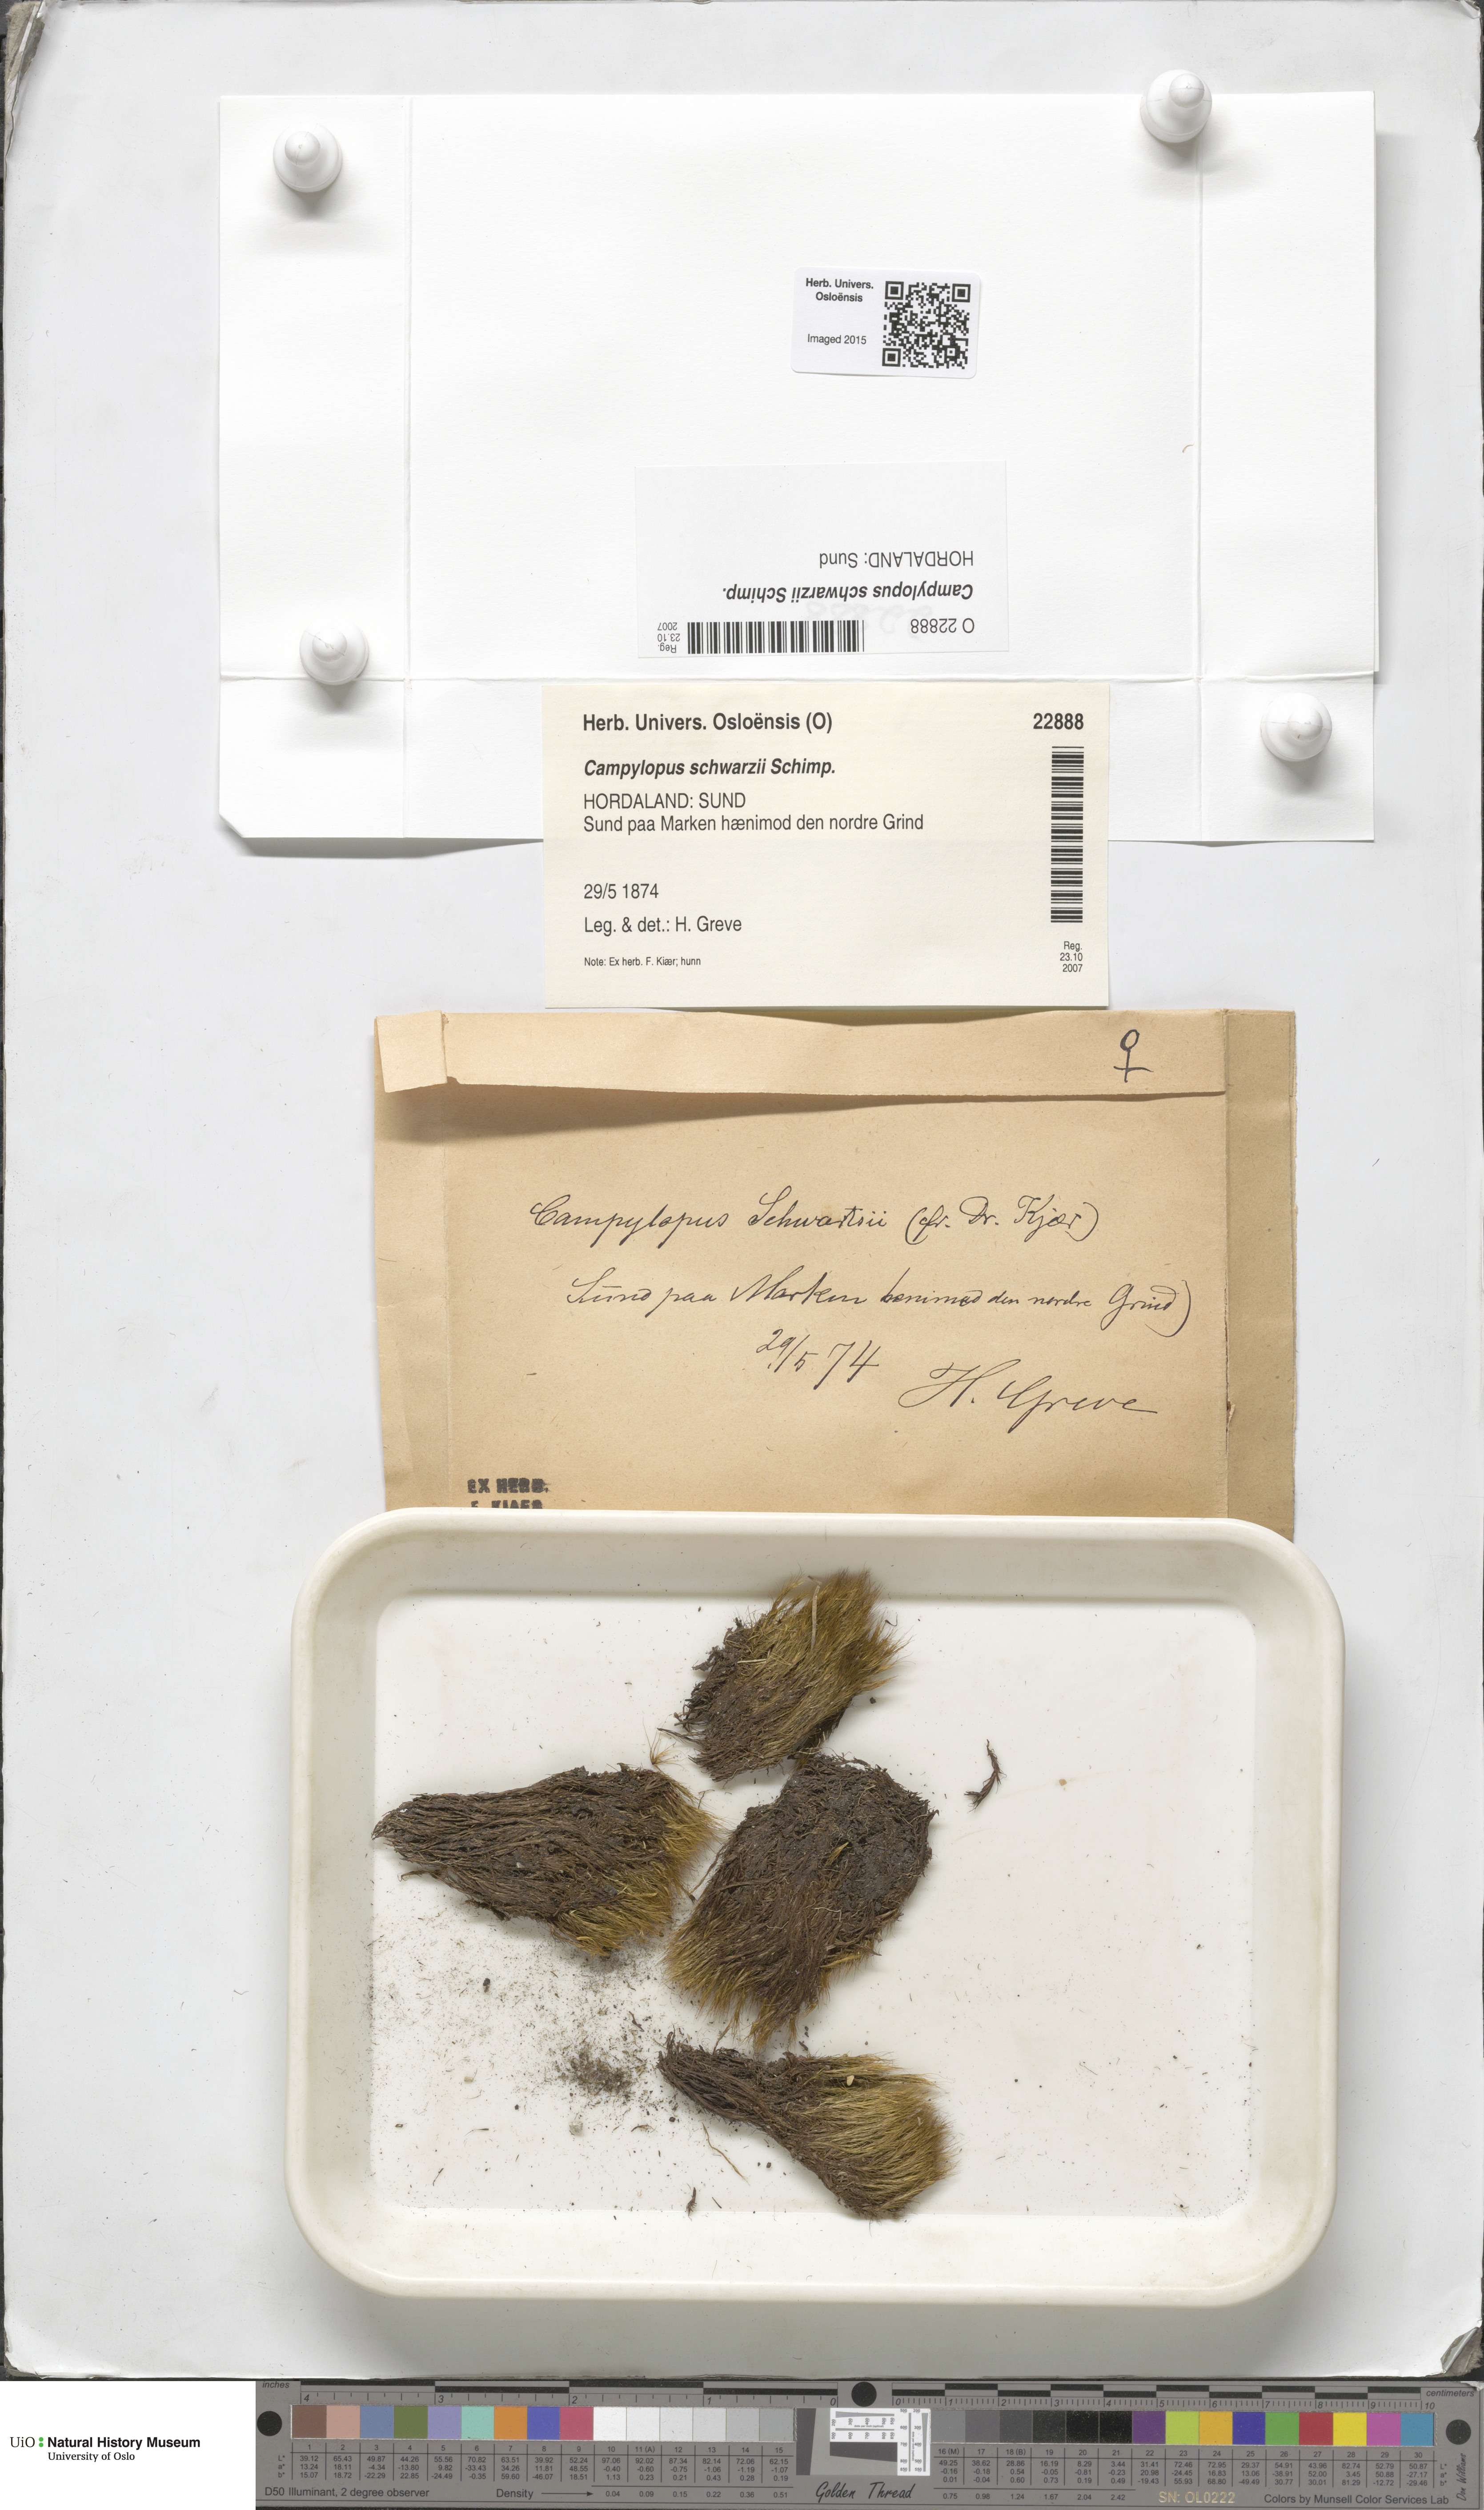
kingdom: Plantae
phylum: Bryophyta
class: Bryopsida
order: Dicranales
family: Leucobryaceae
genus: Campylopus
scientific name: Campylopus gracilis
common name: Schwarz's swan-neck moss
